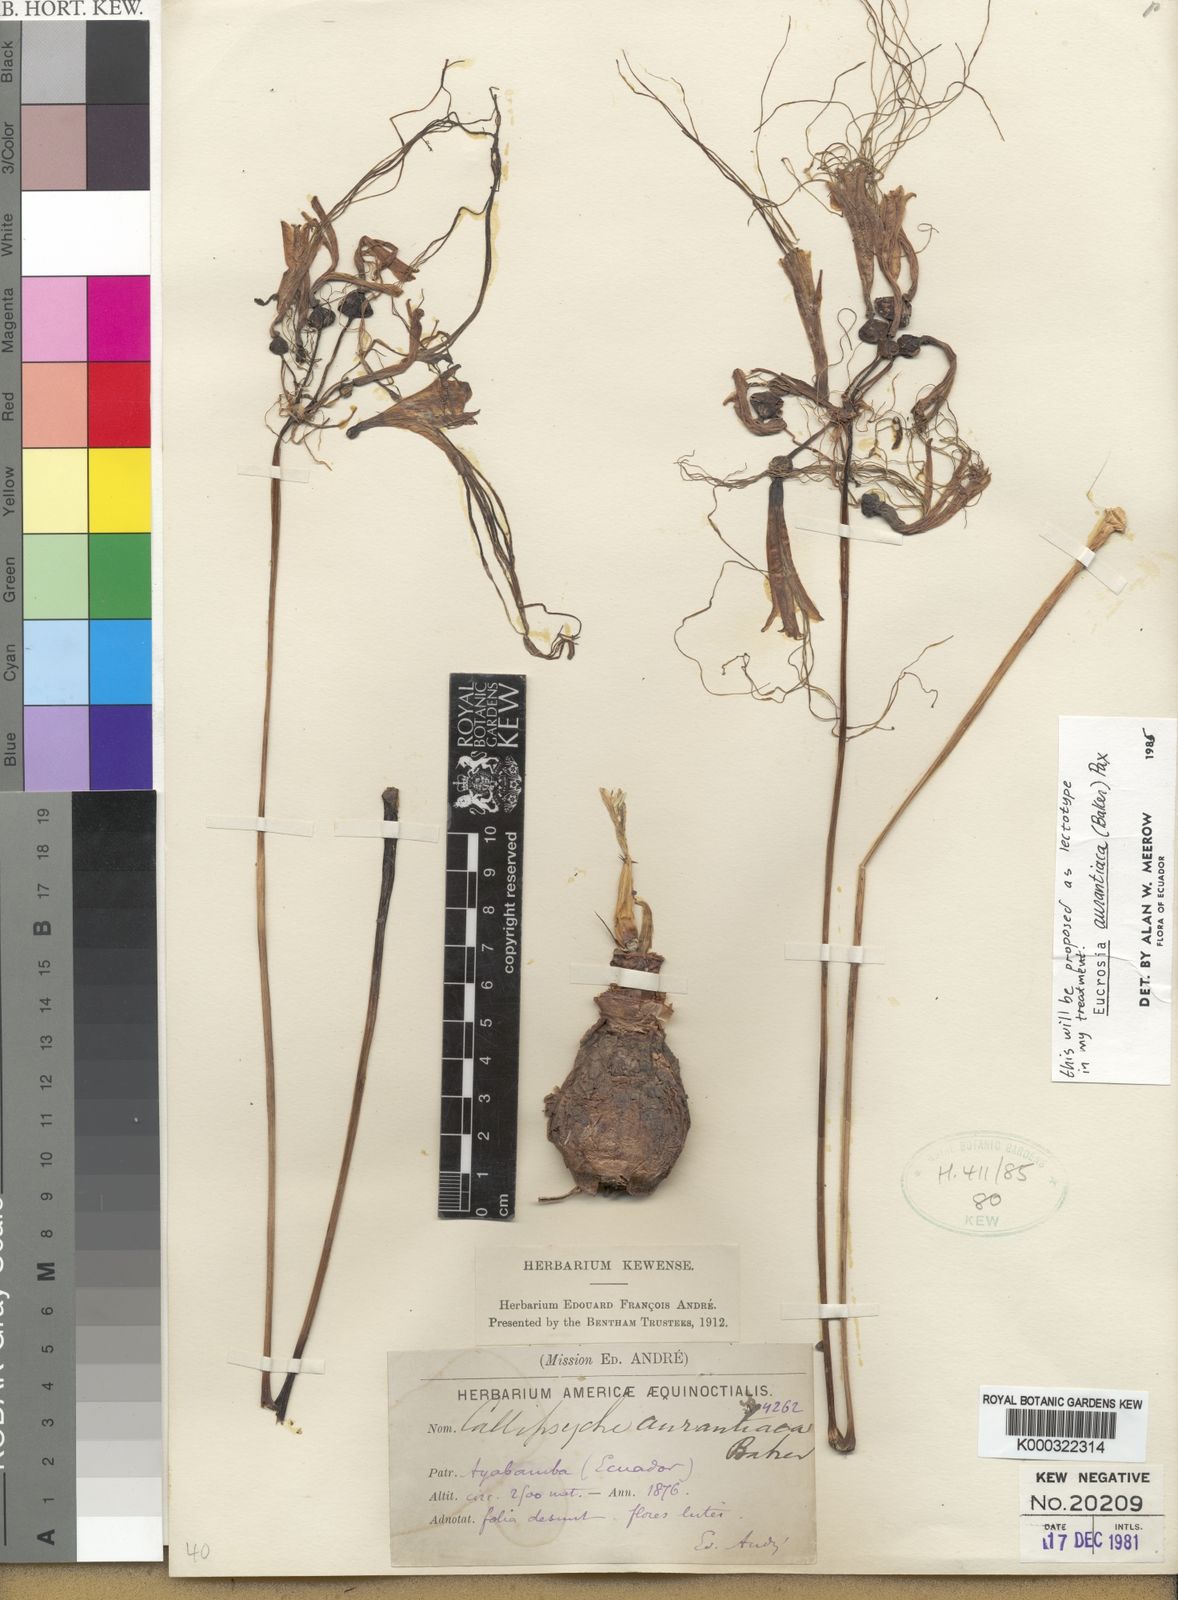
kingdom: Plantae
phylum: Tracheophyta
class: Liliopsida
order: Asparagales
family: Amaryllidaceae
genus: Eucrosia
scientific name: Eucrosia aurantiaca
